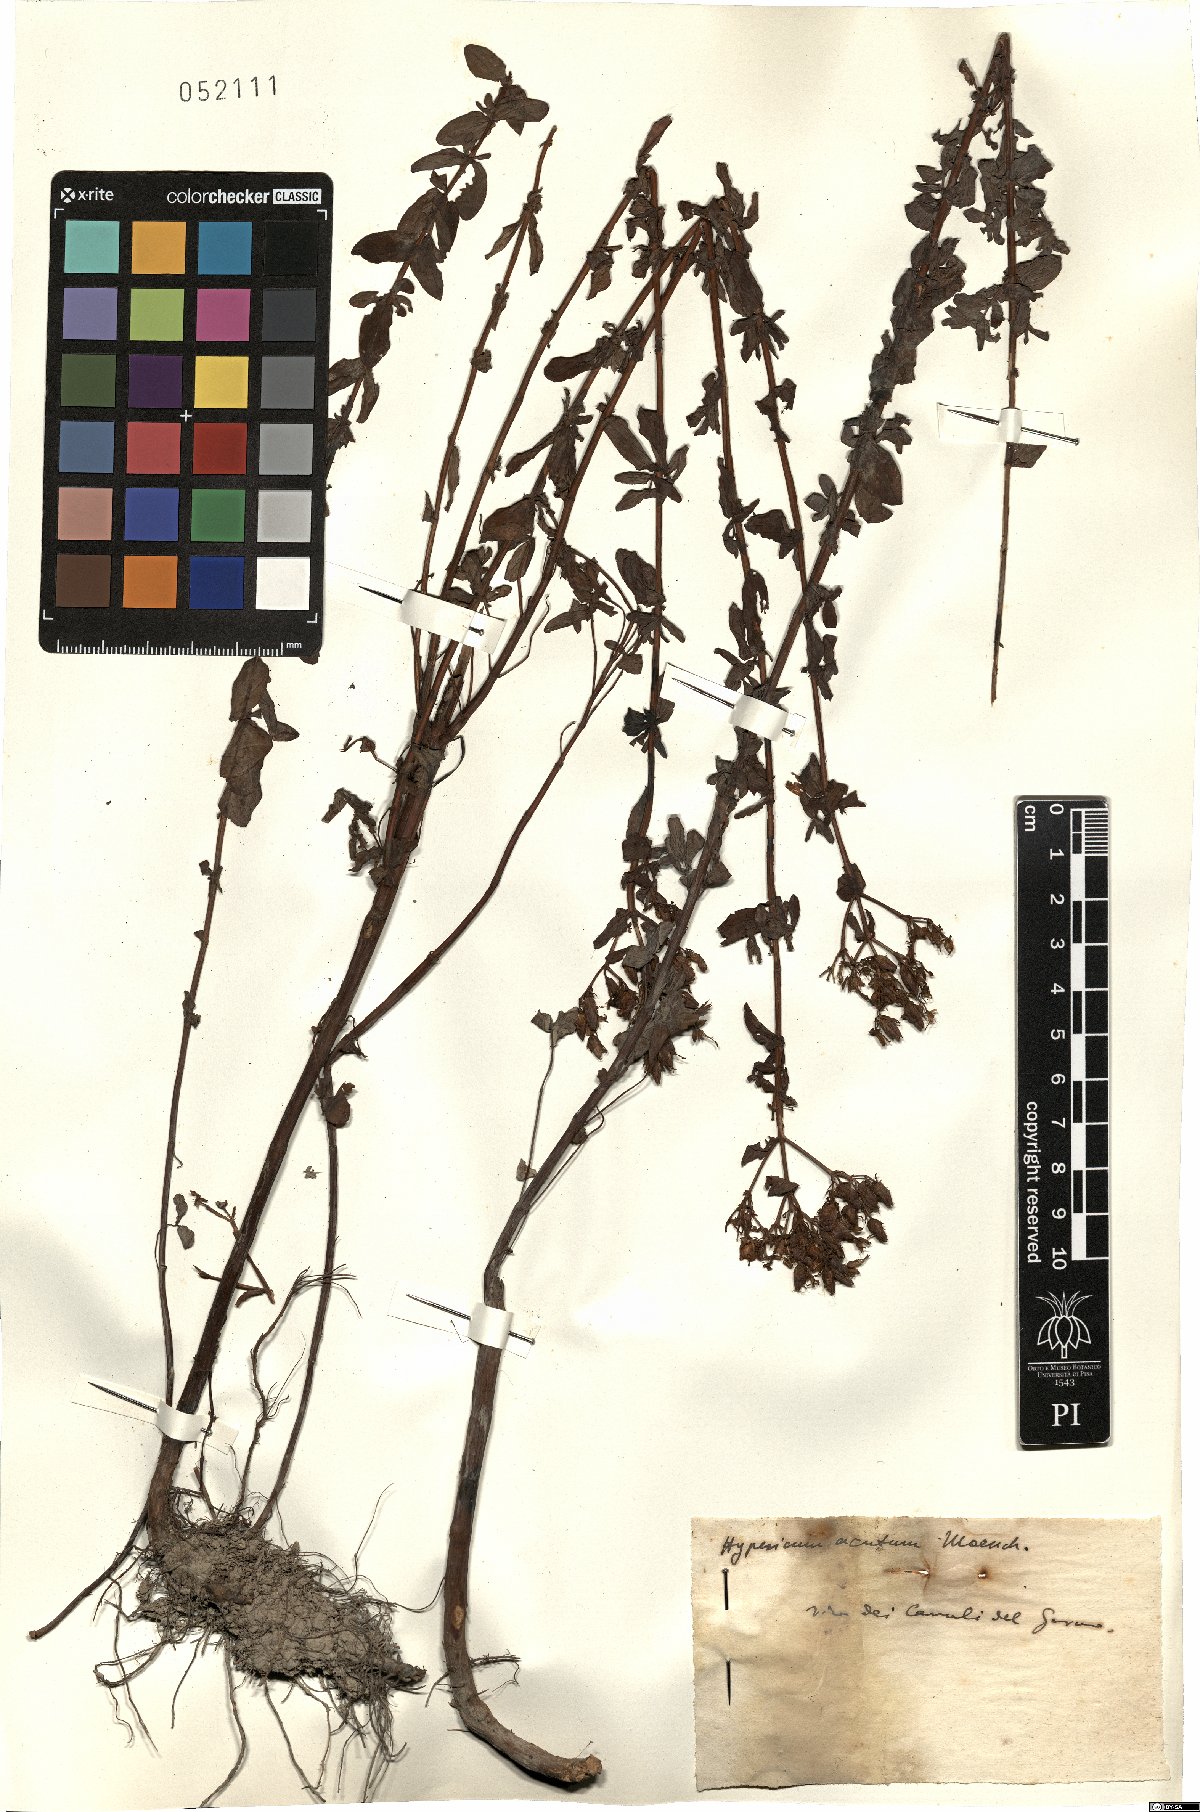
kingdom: Plantae
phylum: Tracheophyta
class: Magnoliopsida
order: Malpighiales
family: Hypericaceae
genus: Hypericum
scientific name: Hypericum tetrapterum
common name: Square-stalked st. john's-wort
